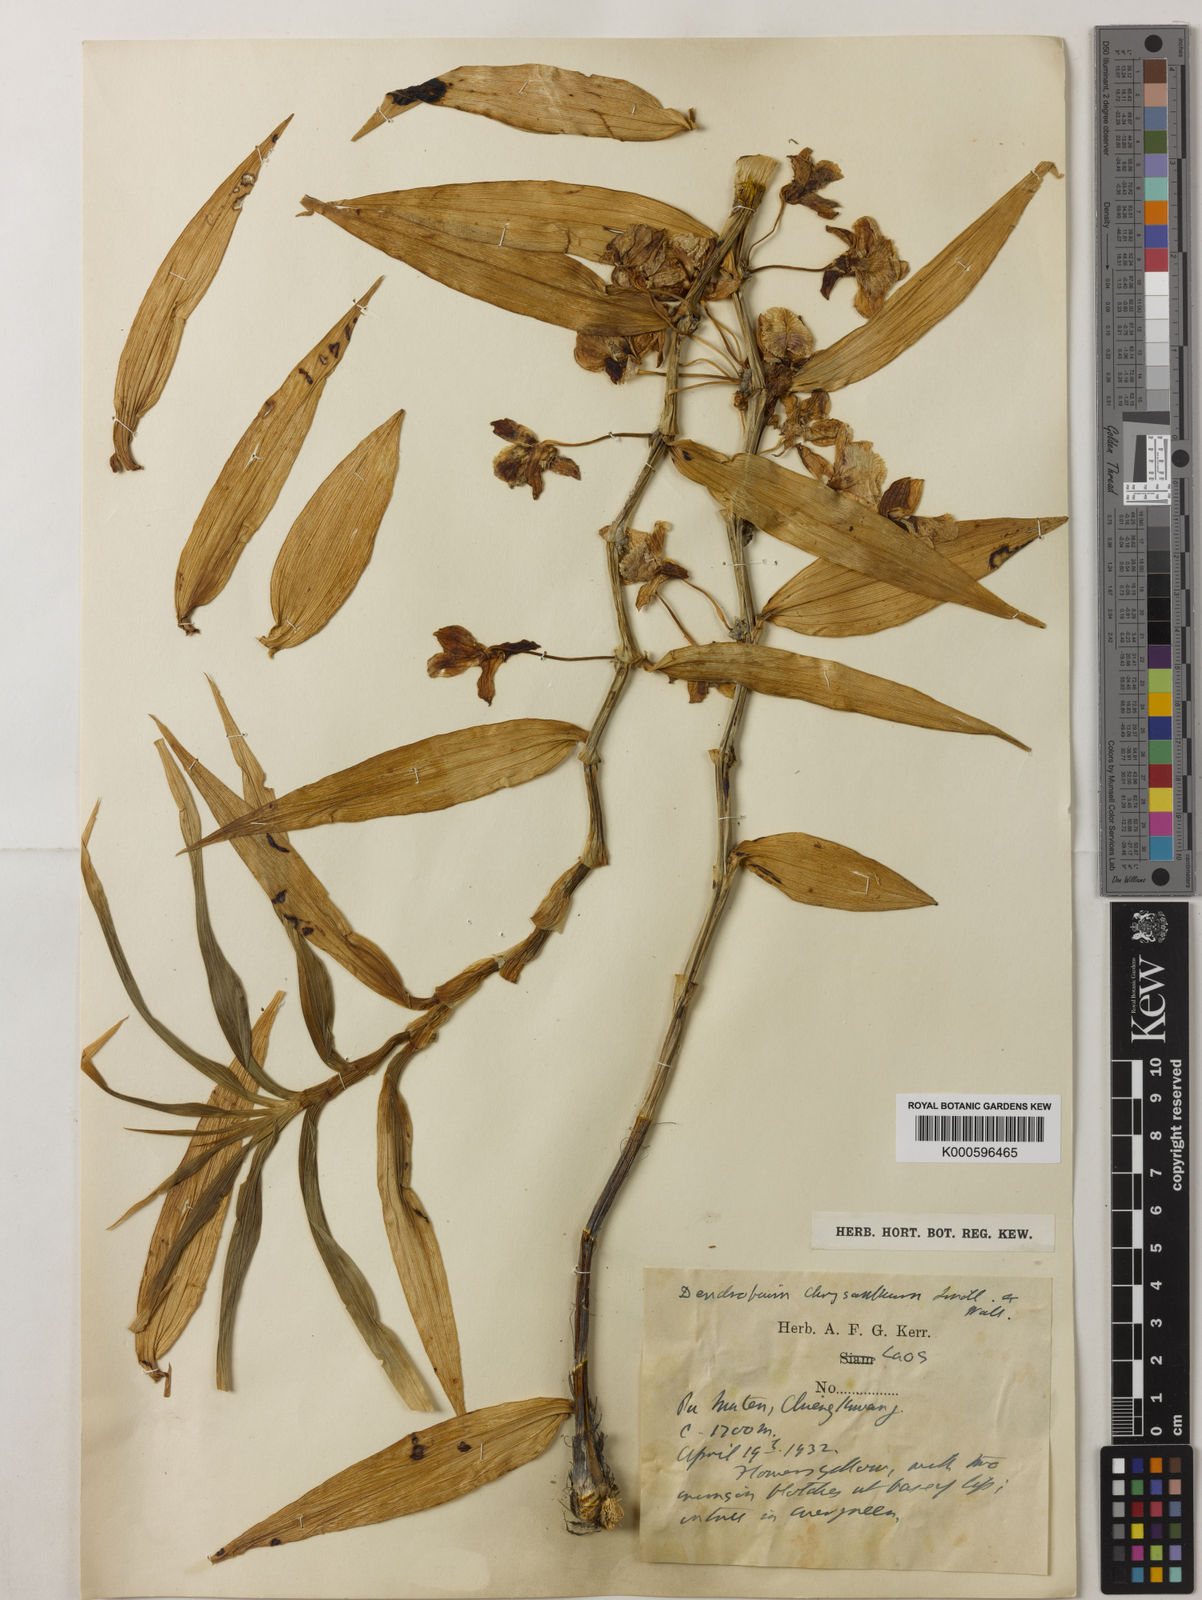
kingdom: Plantae
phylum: Tracheophyta
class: Liliopsida
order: Asparagales
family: Orchidaceae
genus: Dendrobium
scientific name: Dendrobium chrysanthum
